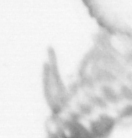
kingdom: Animalia
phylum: Annelida
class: Polychaeta
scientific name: Polychaeta
